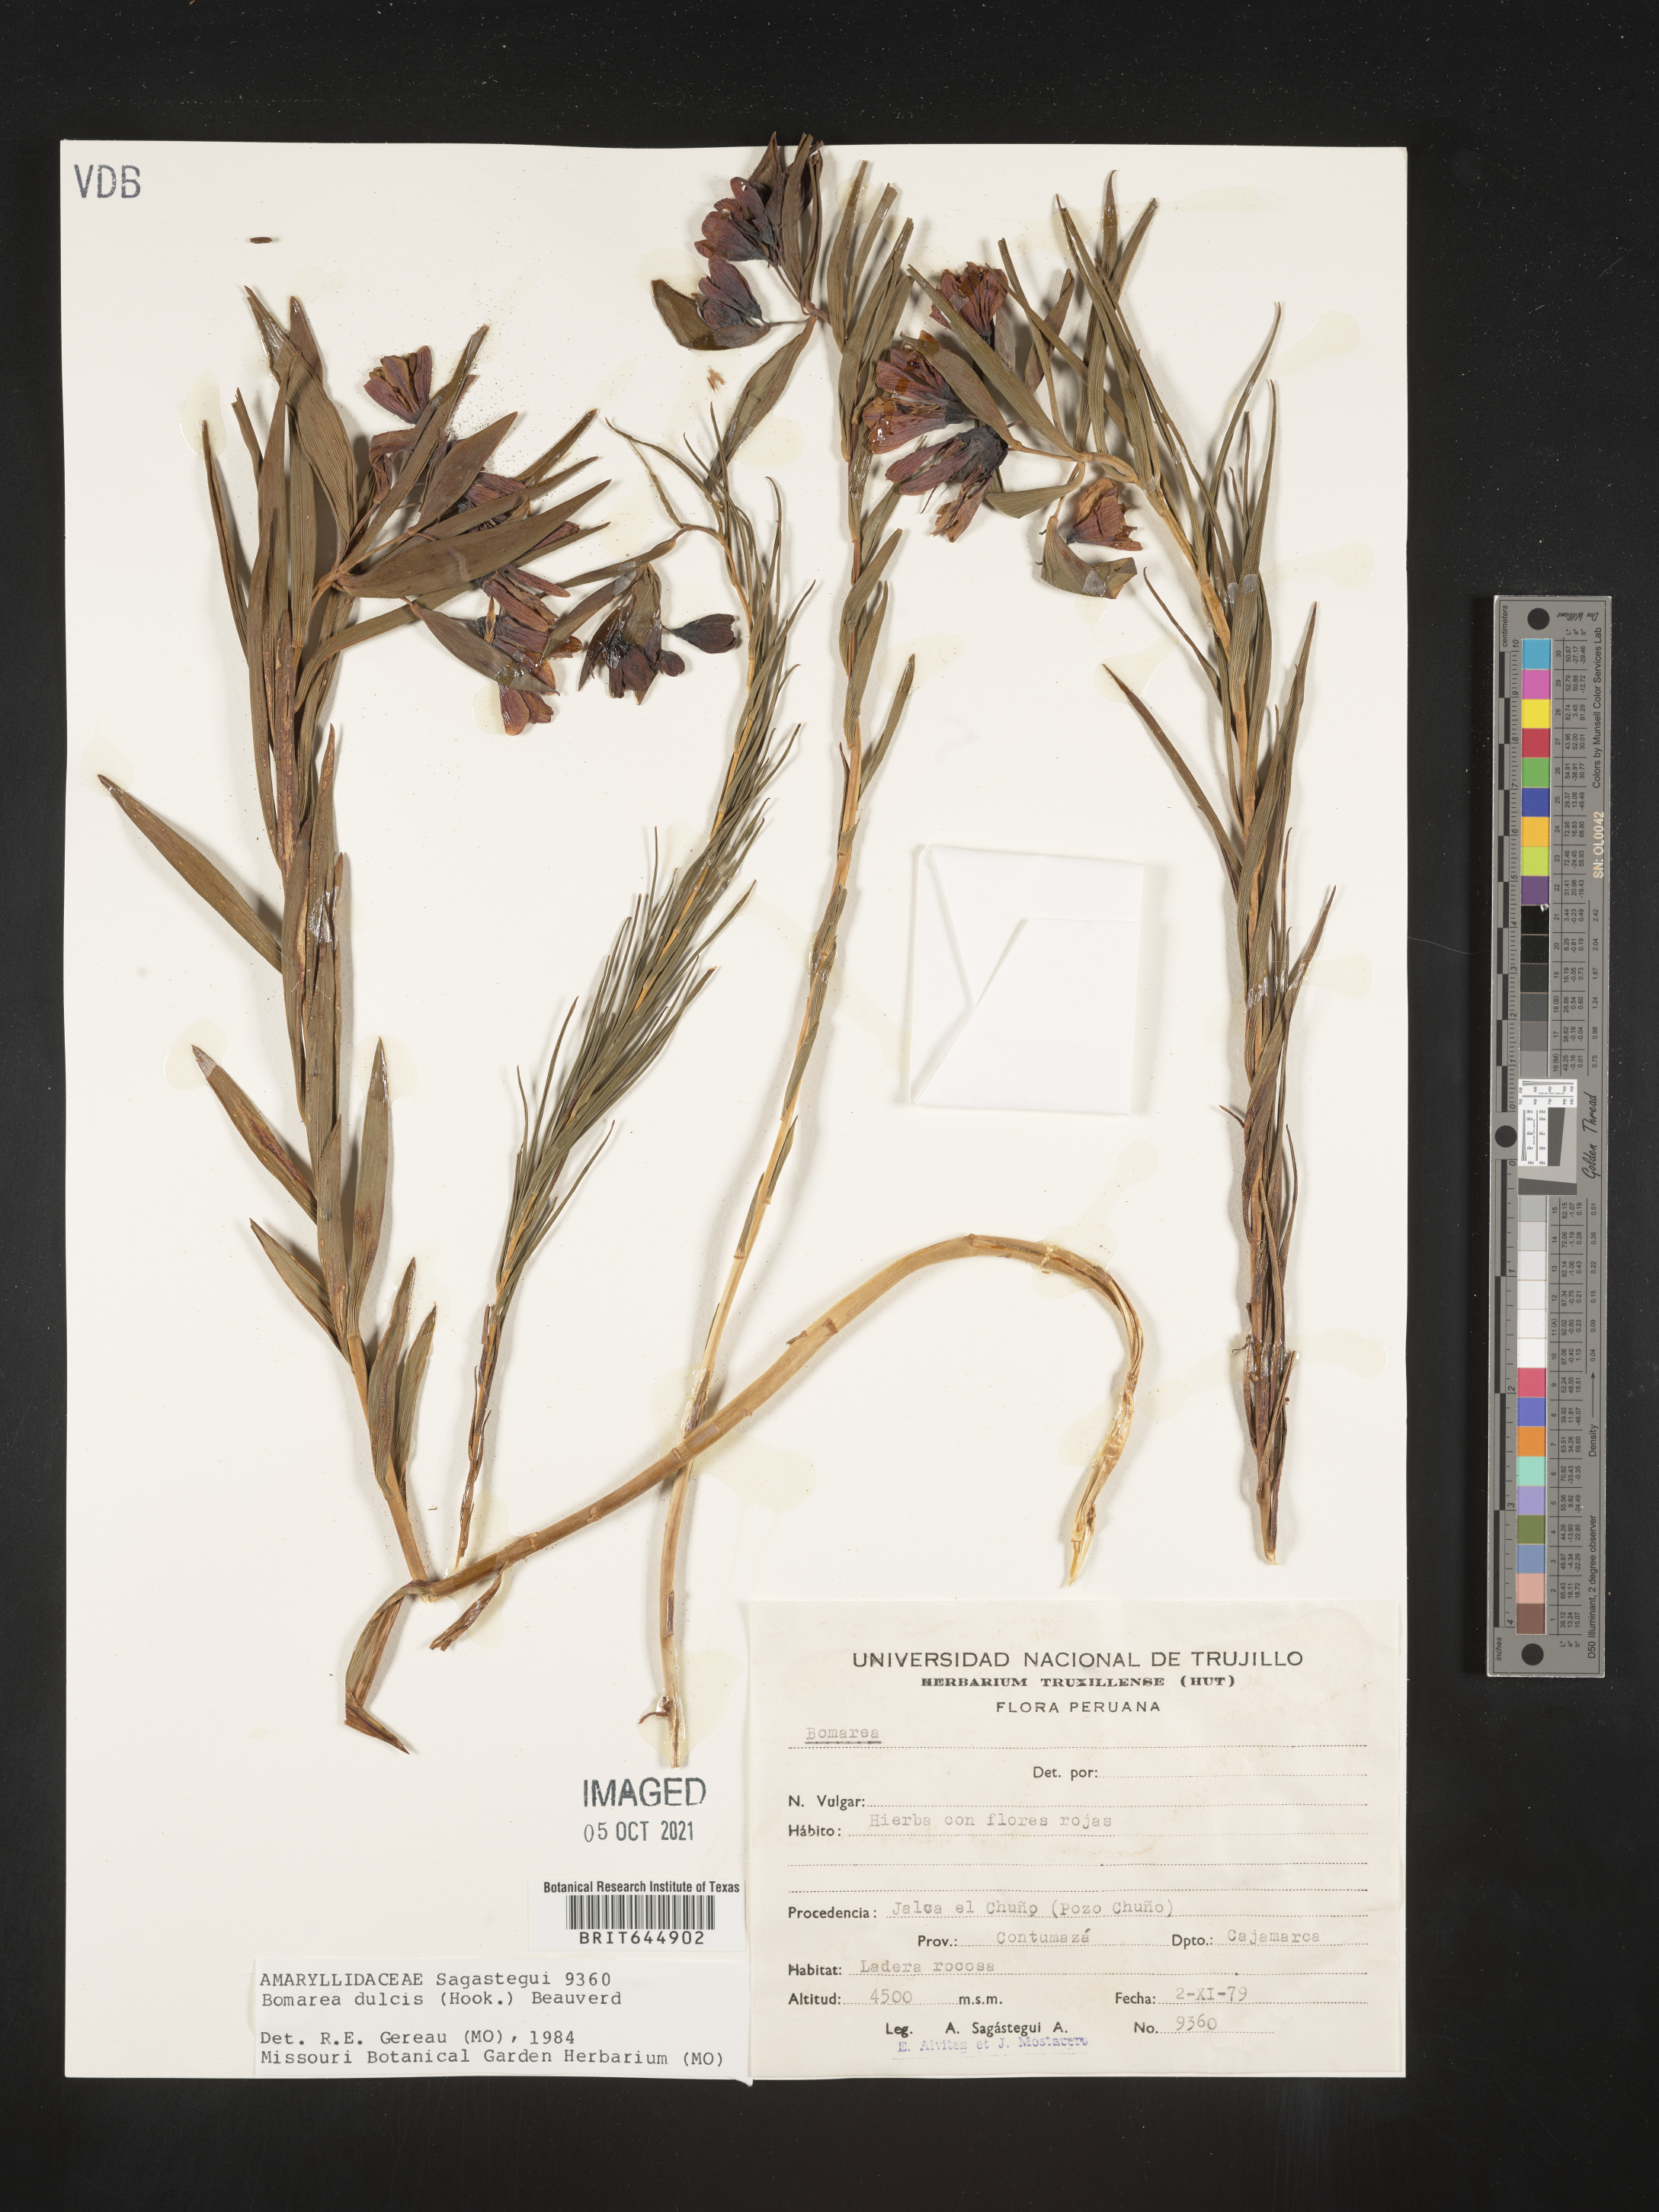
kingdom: Plantae
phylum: Tracheophyta
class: Liliopsida
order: Liliales
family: Alstroemeriaceae
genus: Bomarea
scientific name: Bomarea dulcis
